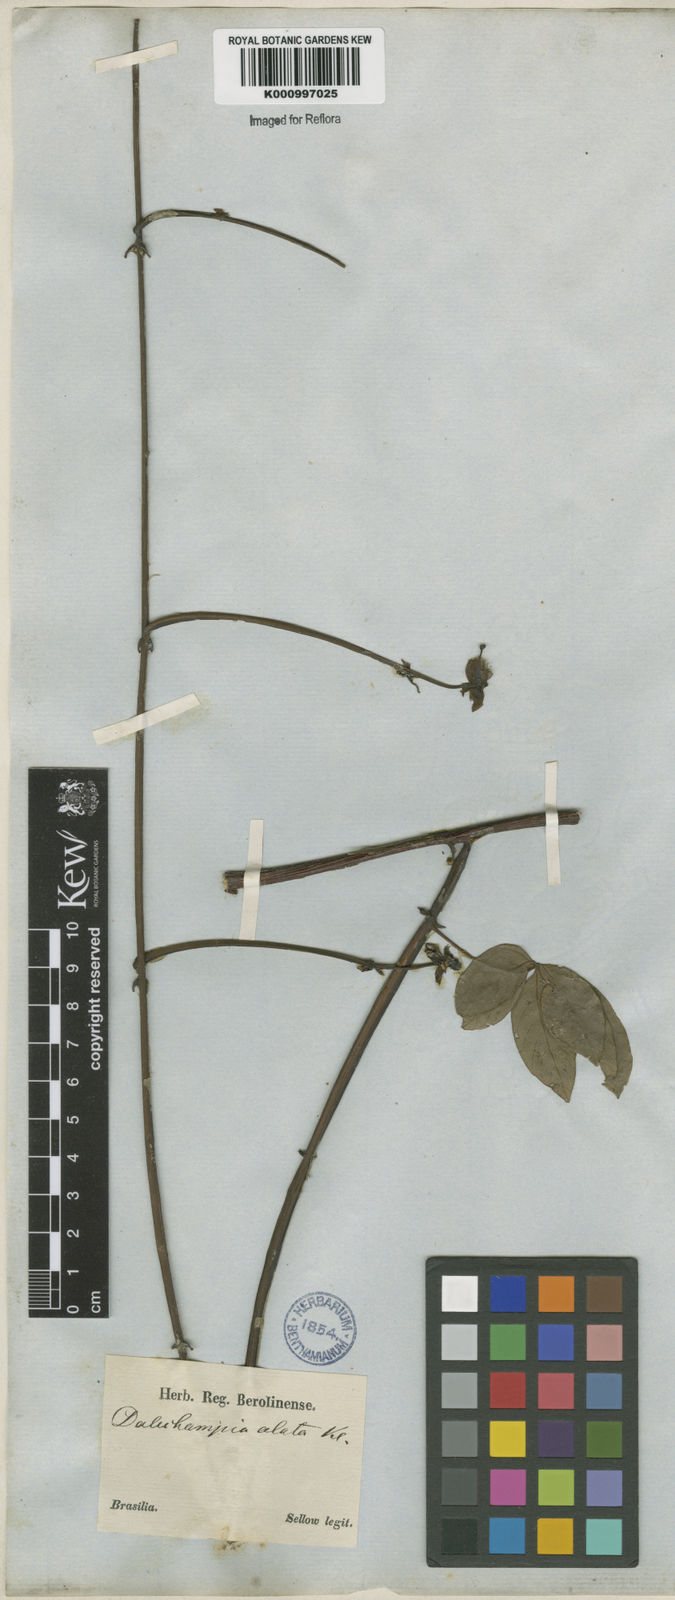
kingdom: Plantae
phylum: Tracheophyta
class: Magnoliopsida
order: Malpighiales
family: Euphorbiaceae
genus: Dalechampia
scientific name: Dalechampia alata
